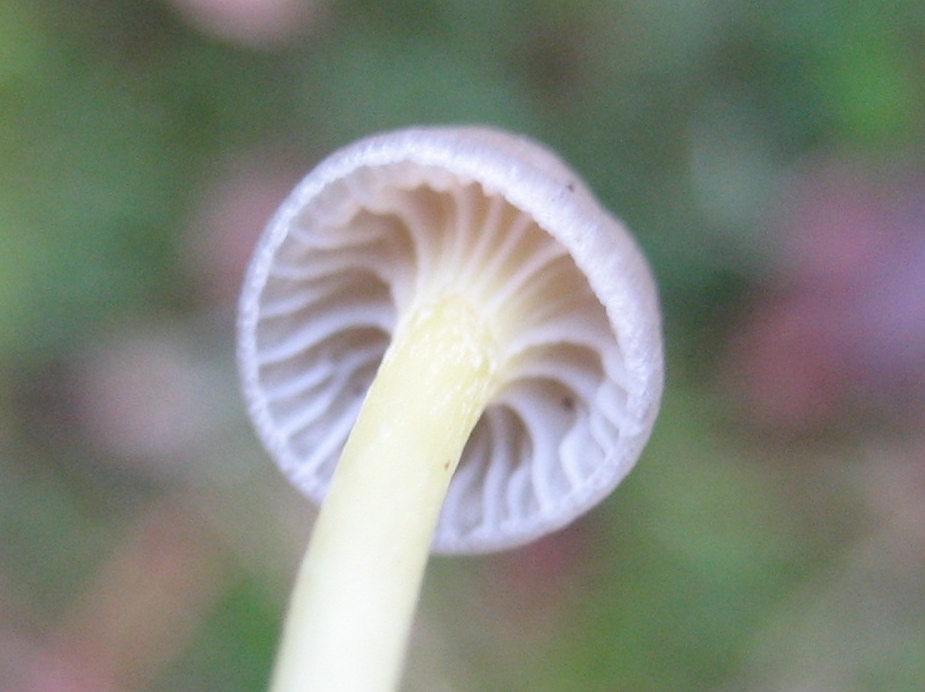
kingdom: Fungi
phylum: Basidiomycota
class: Agaricomycetes
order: Agaricales
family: Mycenaceae
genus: Mycena
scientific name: Mycena
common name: huesvamp
